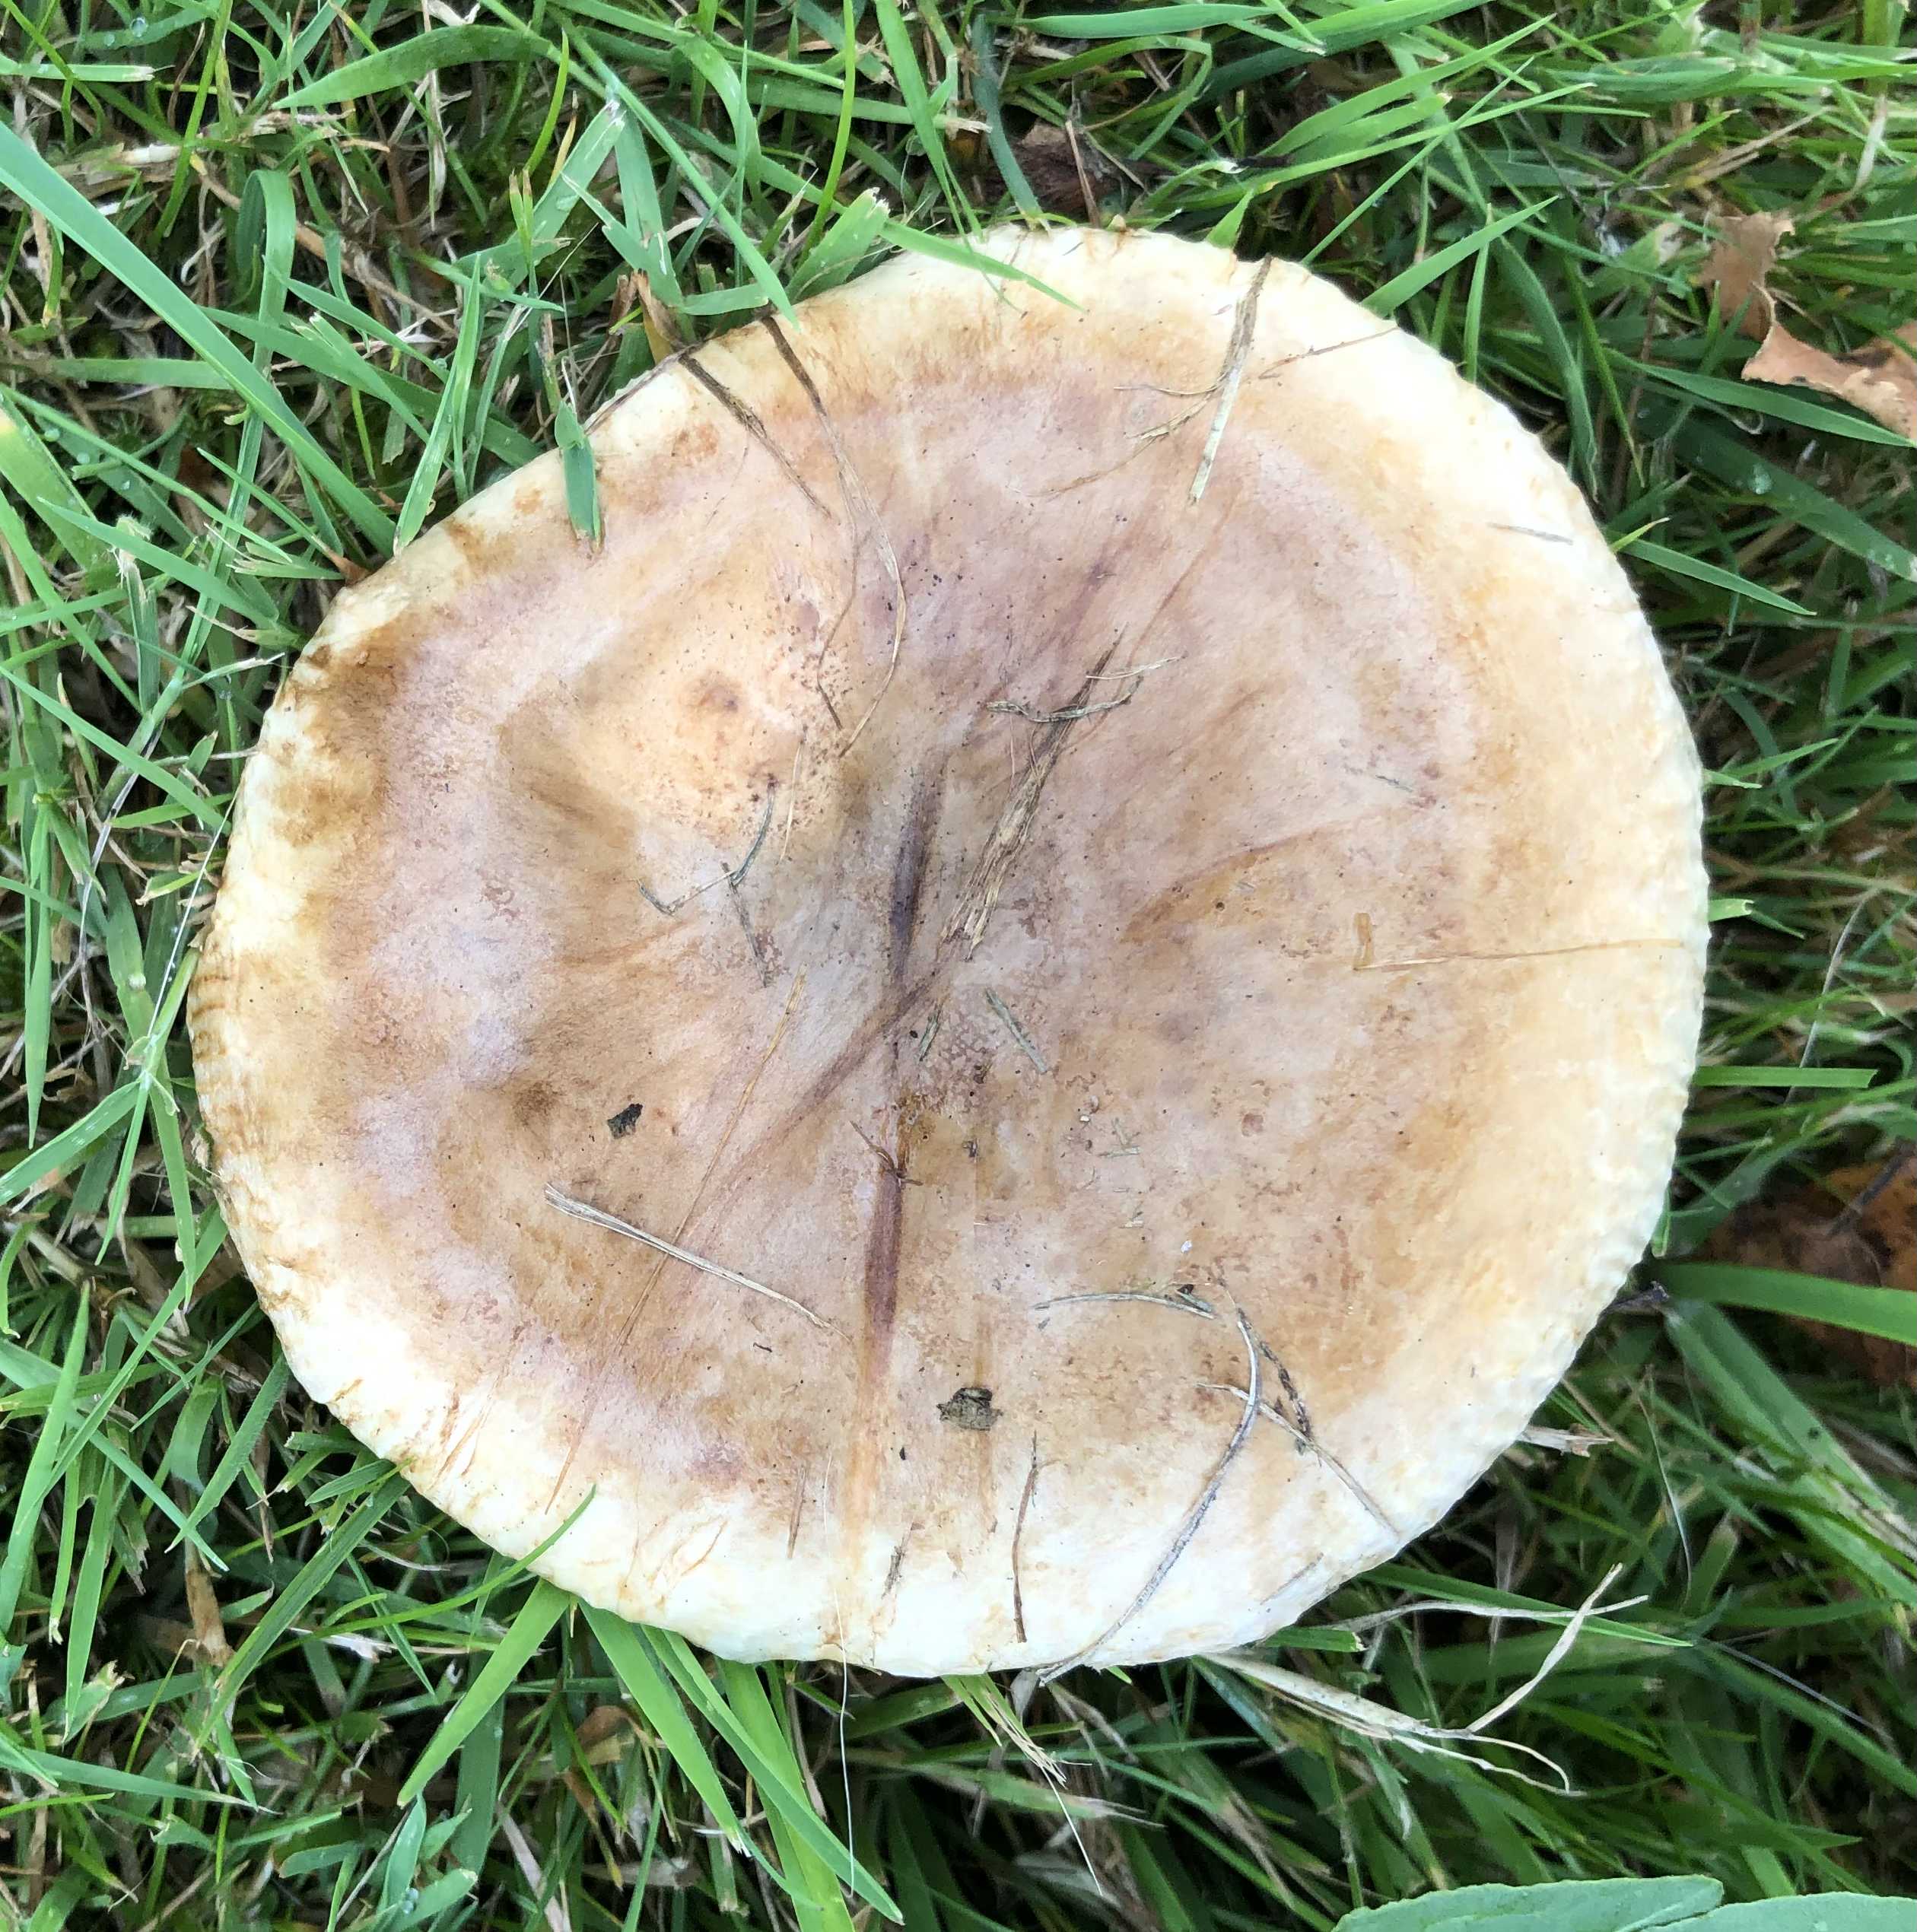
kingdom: Fungi
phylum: Basidiomycota
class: Agaricomycetes
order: Boletales
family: Paxillaceae
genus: Paxillus
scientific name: Paxillus
